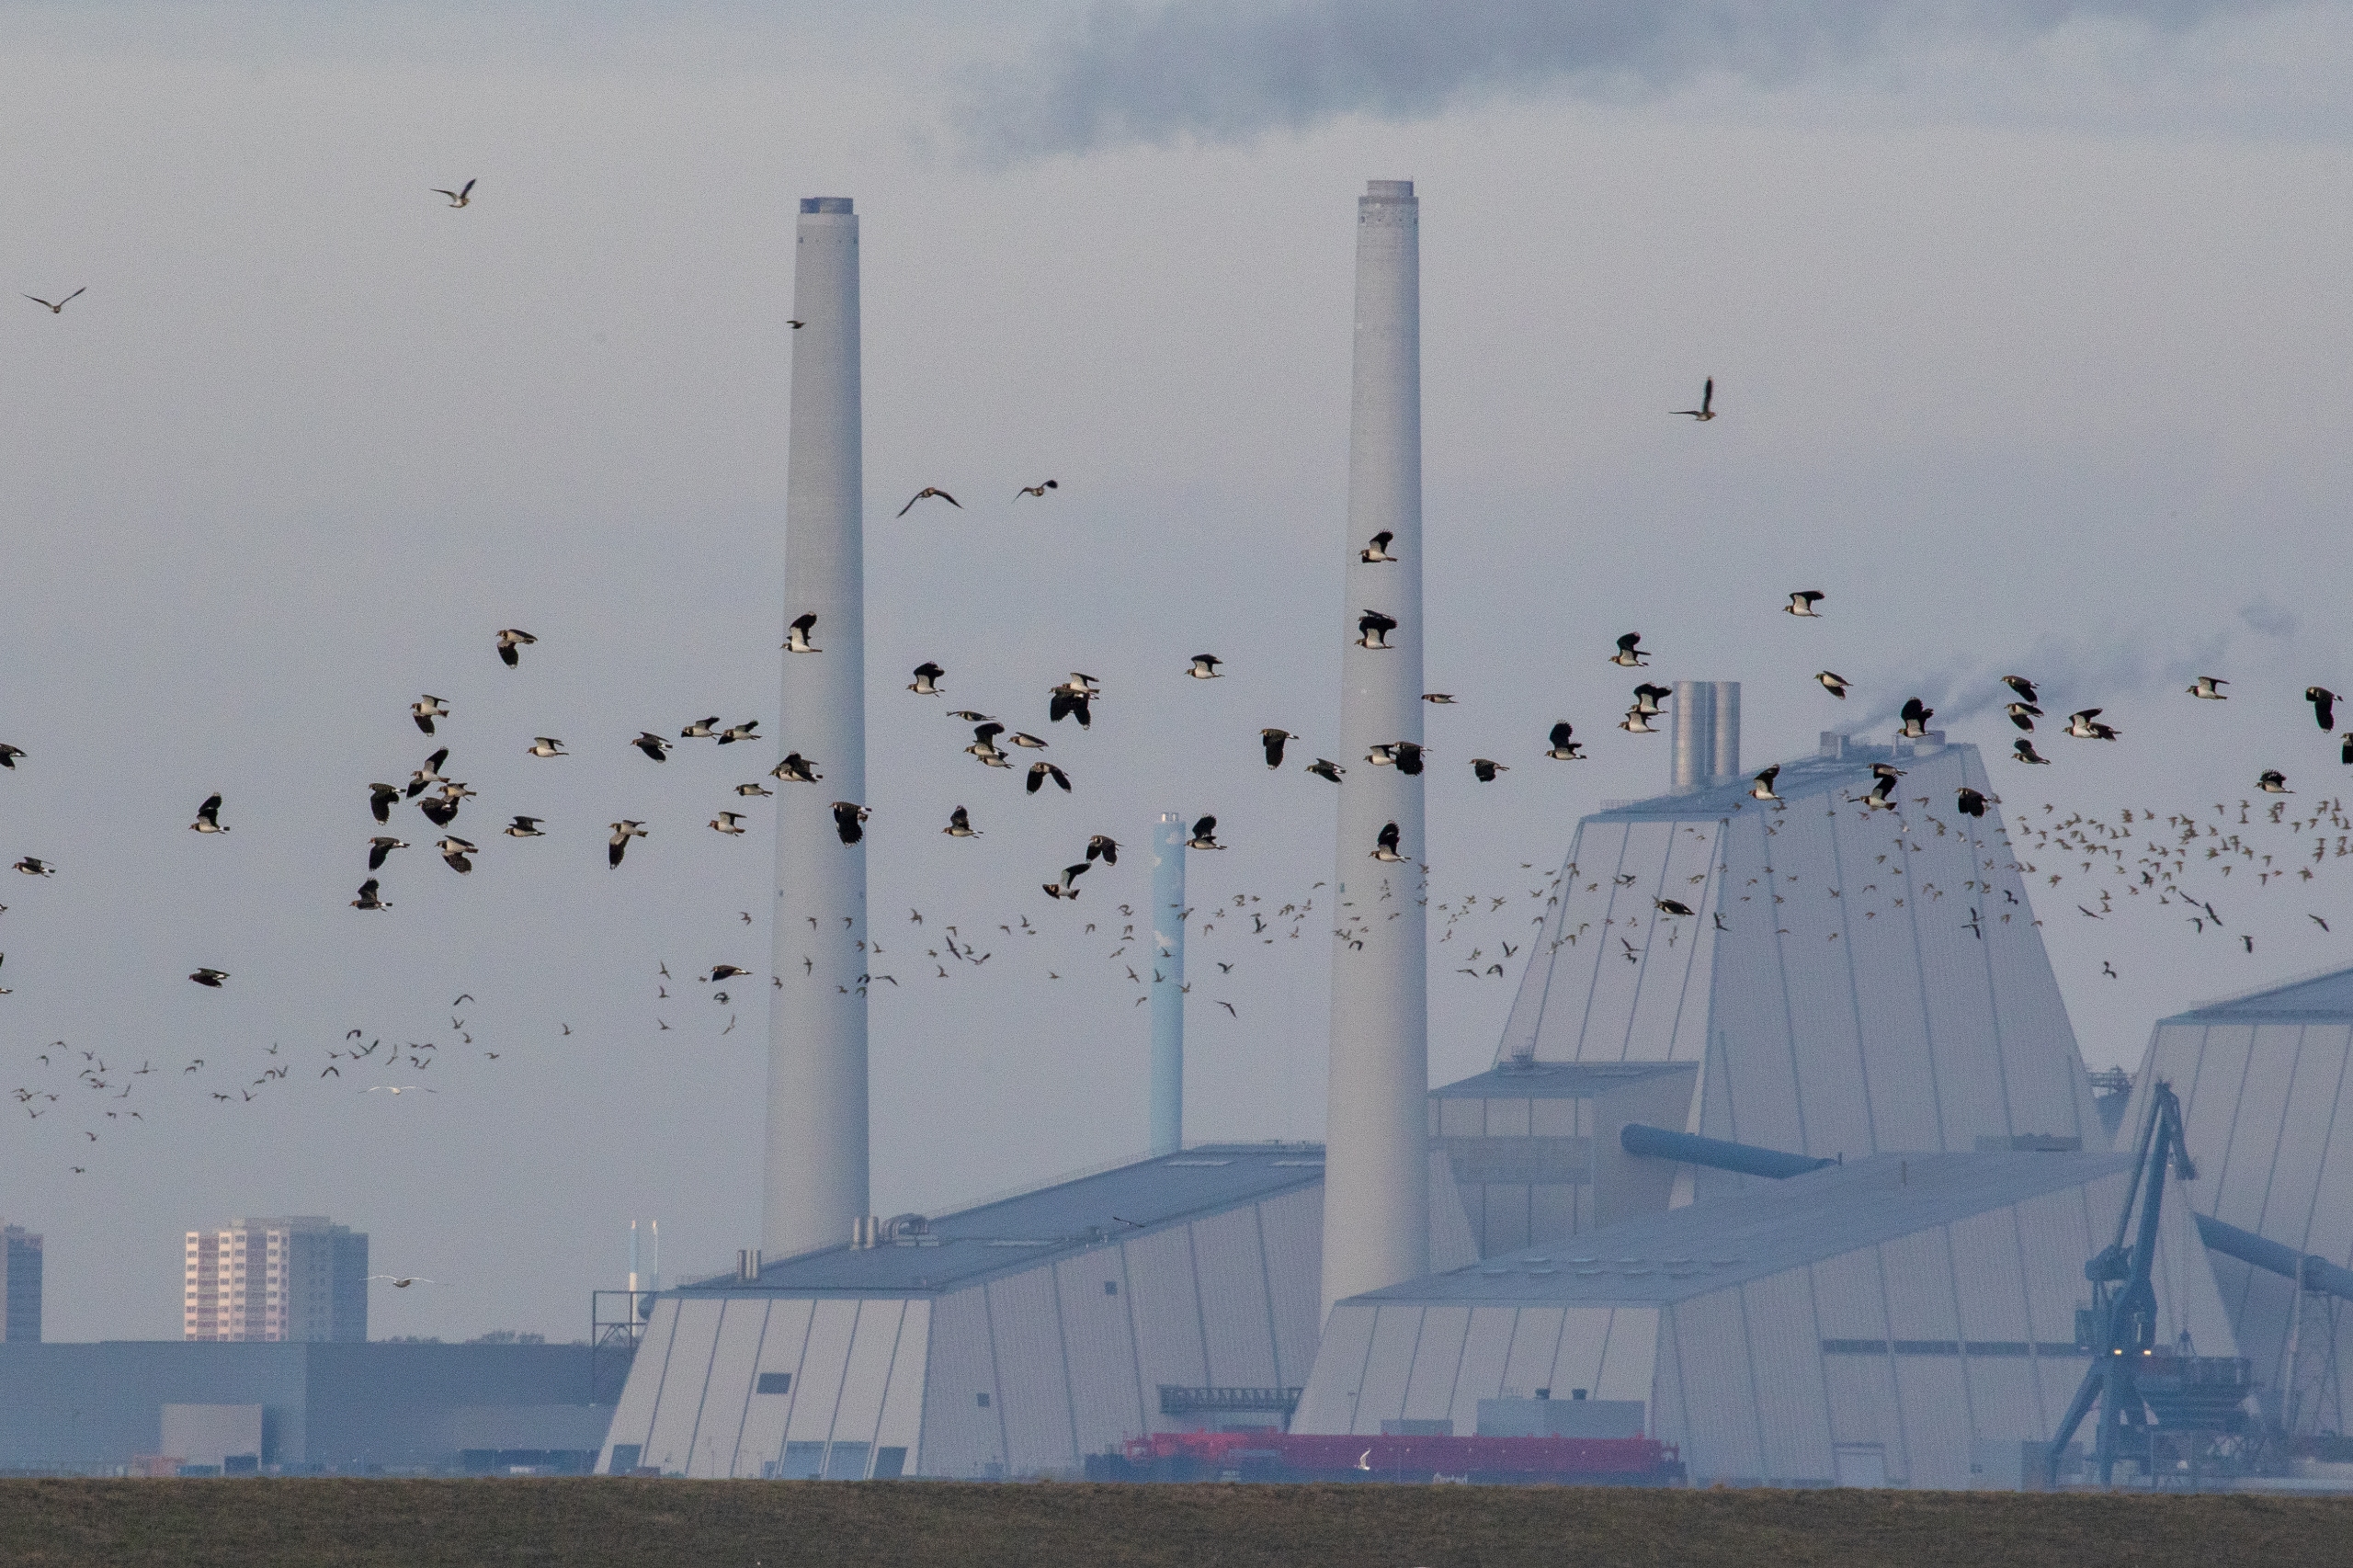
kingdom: Animalia
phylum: Chordata
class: Aves
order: Charadriiformes
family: Charadriidae
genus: Vanellus
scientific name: Vanellus vanellus
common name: Vibe
